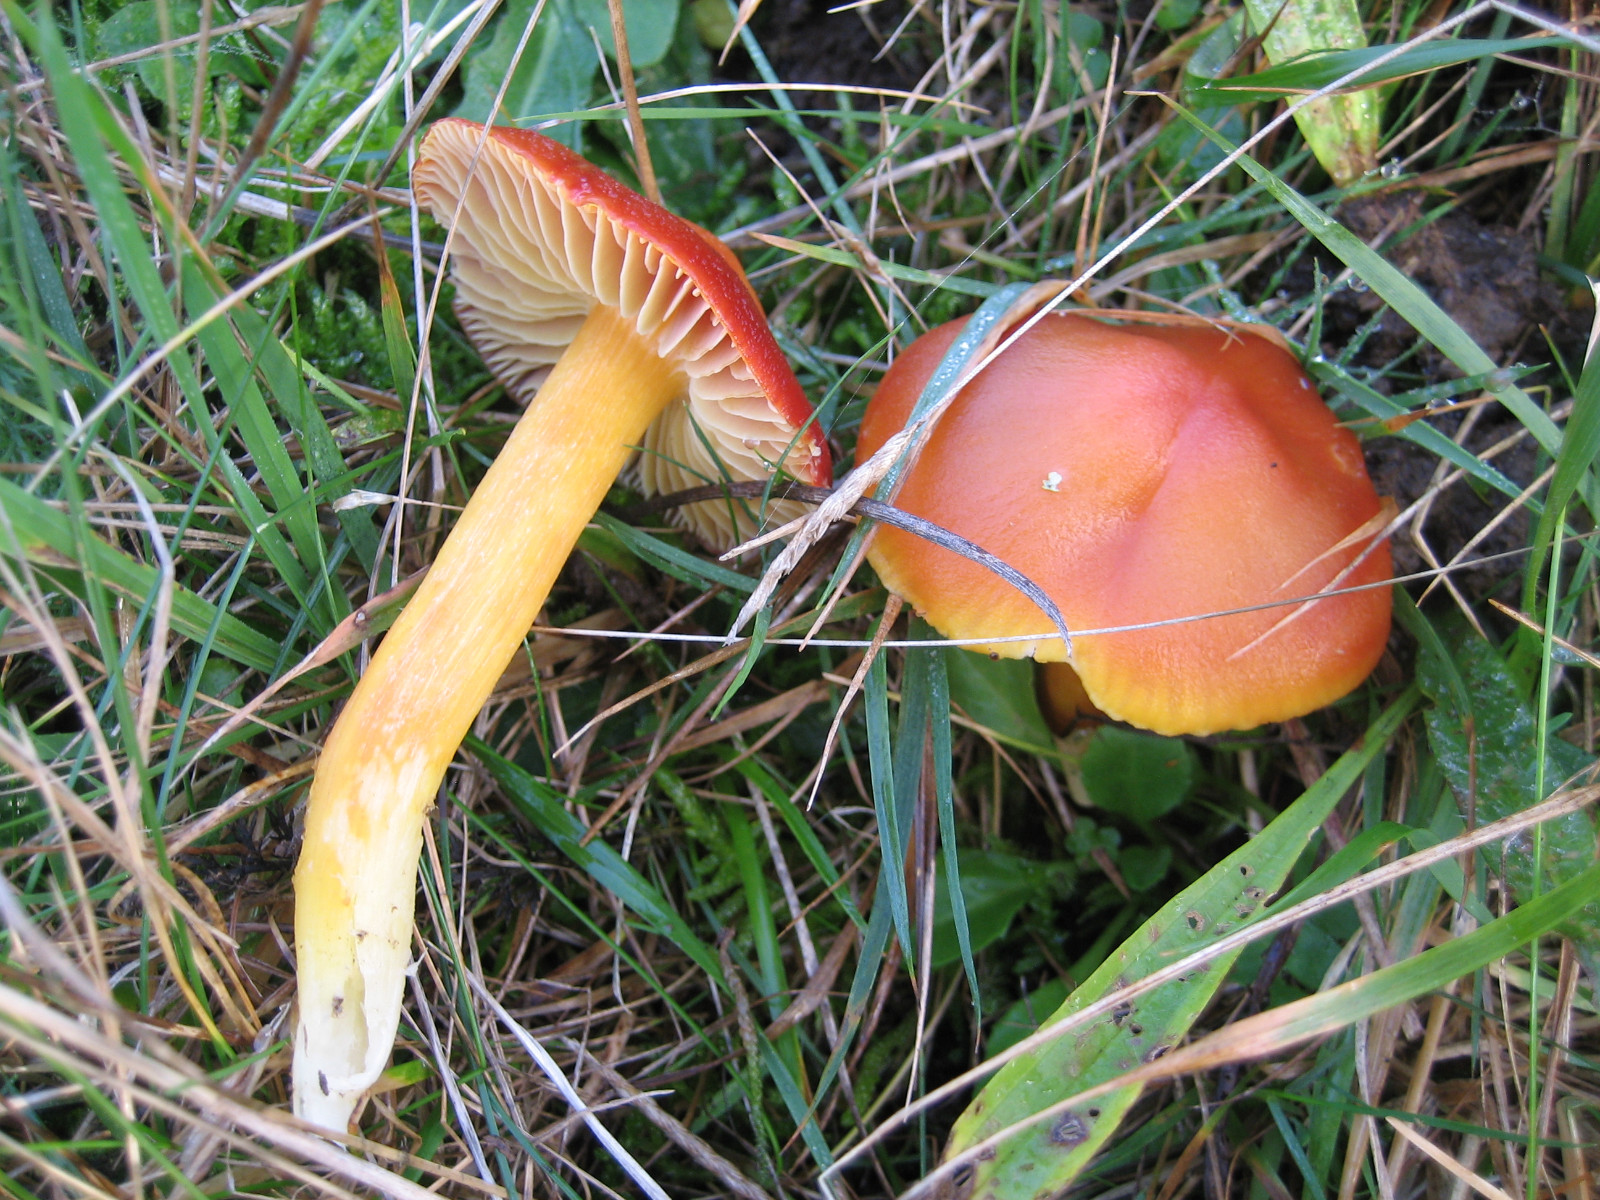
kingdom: Fungi
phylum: Basidiomycota
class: Agaricomycetes
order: Agaricales
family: Hygrophoraceae
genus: Hygrocybe
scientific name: Hygrocybe punicea
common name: skarlagen-vokshat
